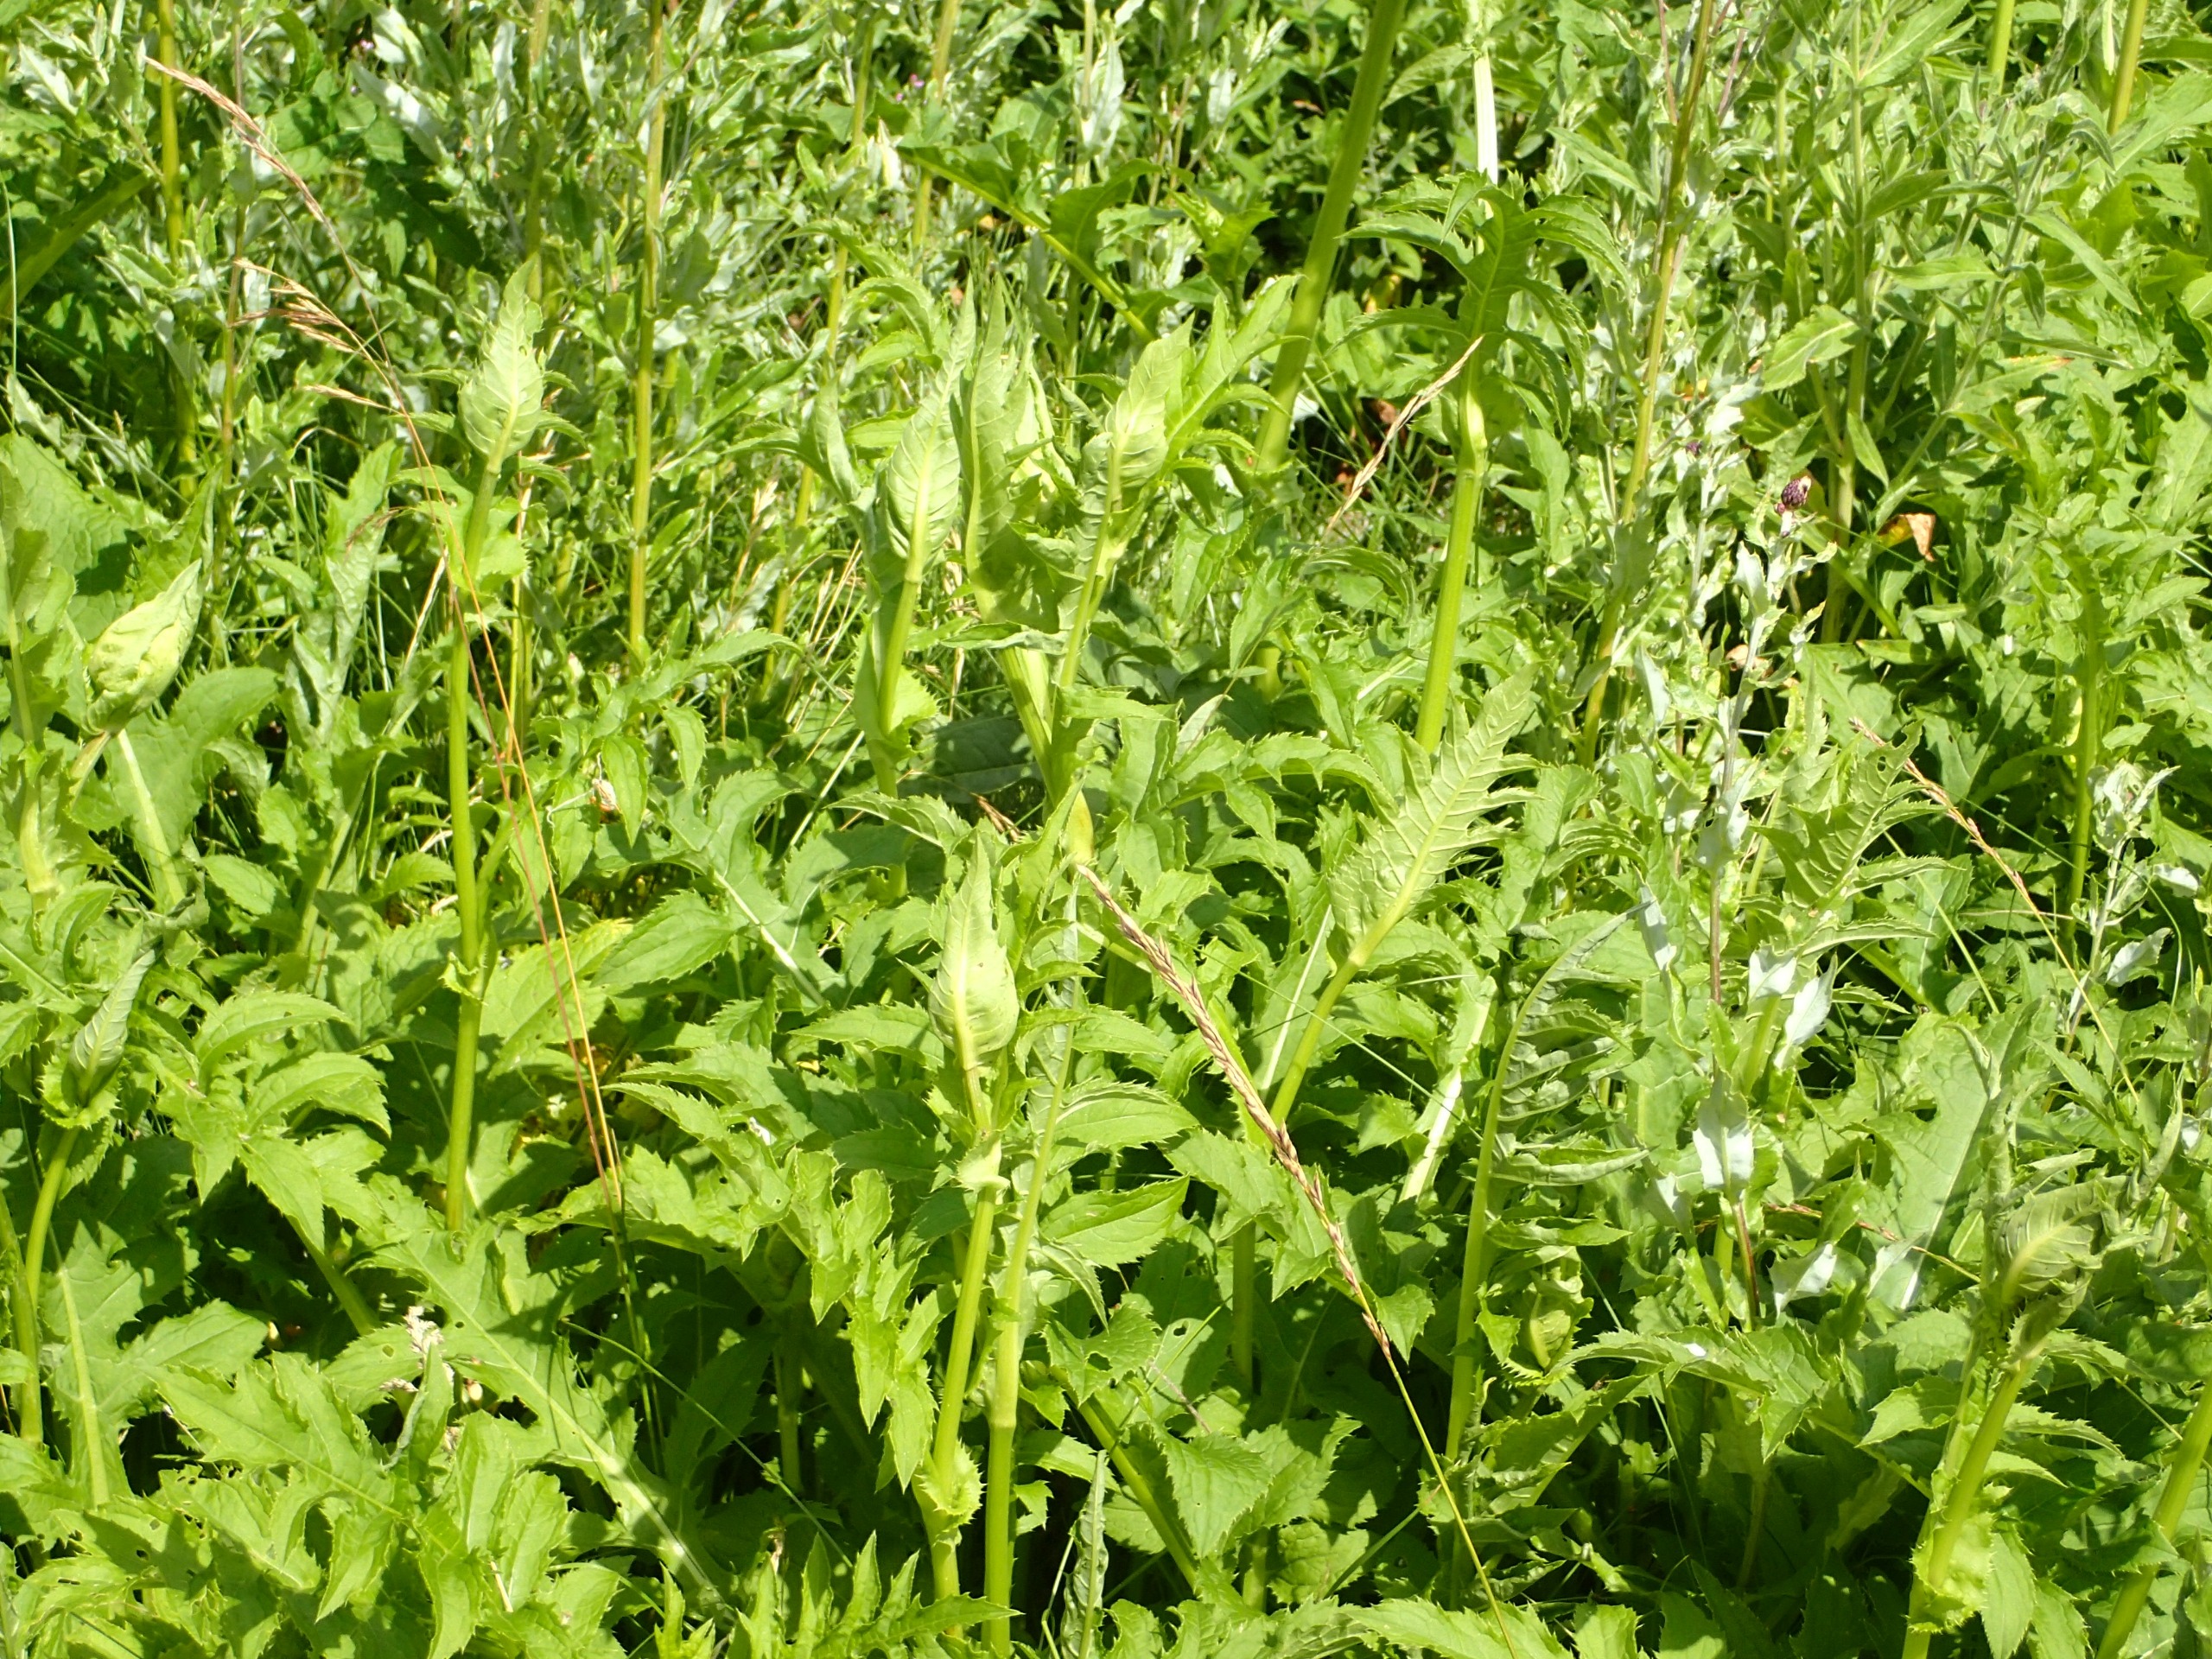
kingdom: Plantae
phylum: Tracheophyta
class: Magnoliopsida
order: Asterales
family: Asteraceae
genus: Cirsium
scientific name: Cirsium oleraceum
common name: Kål-tidsel
